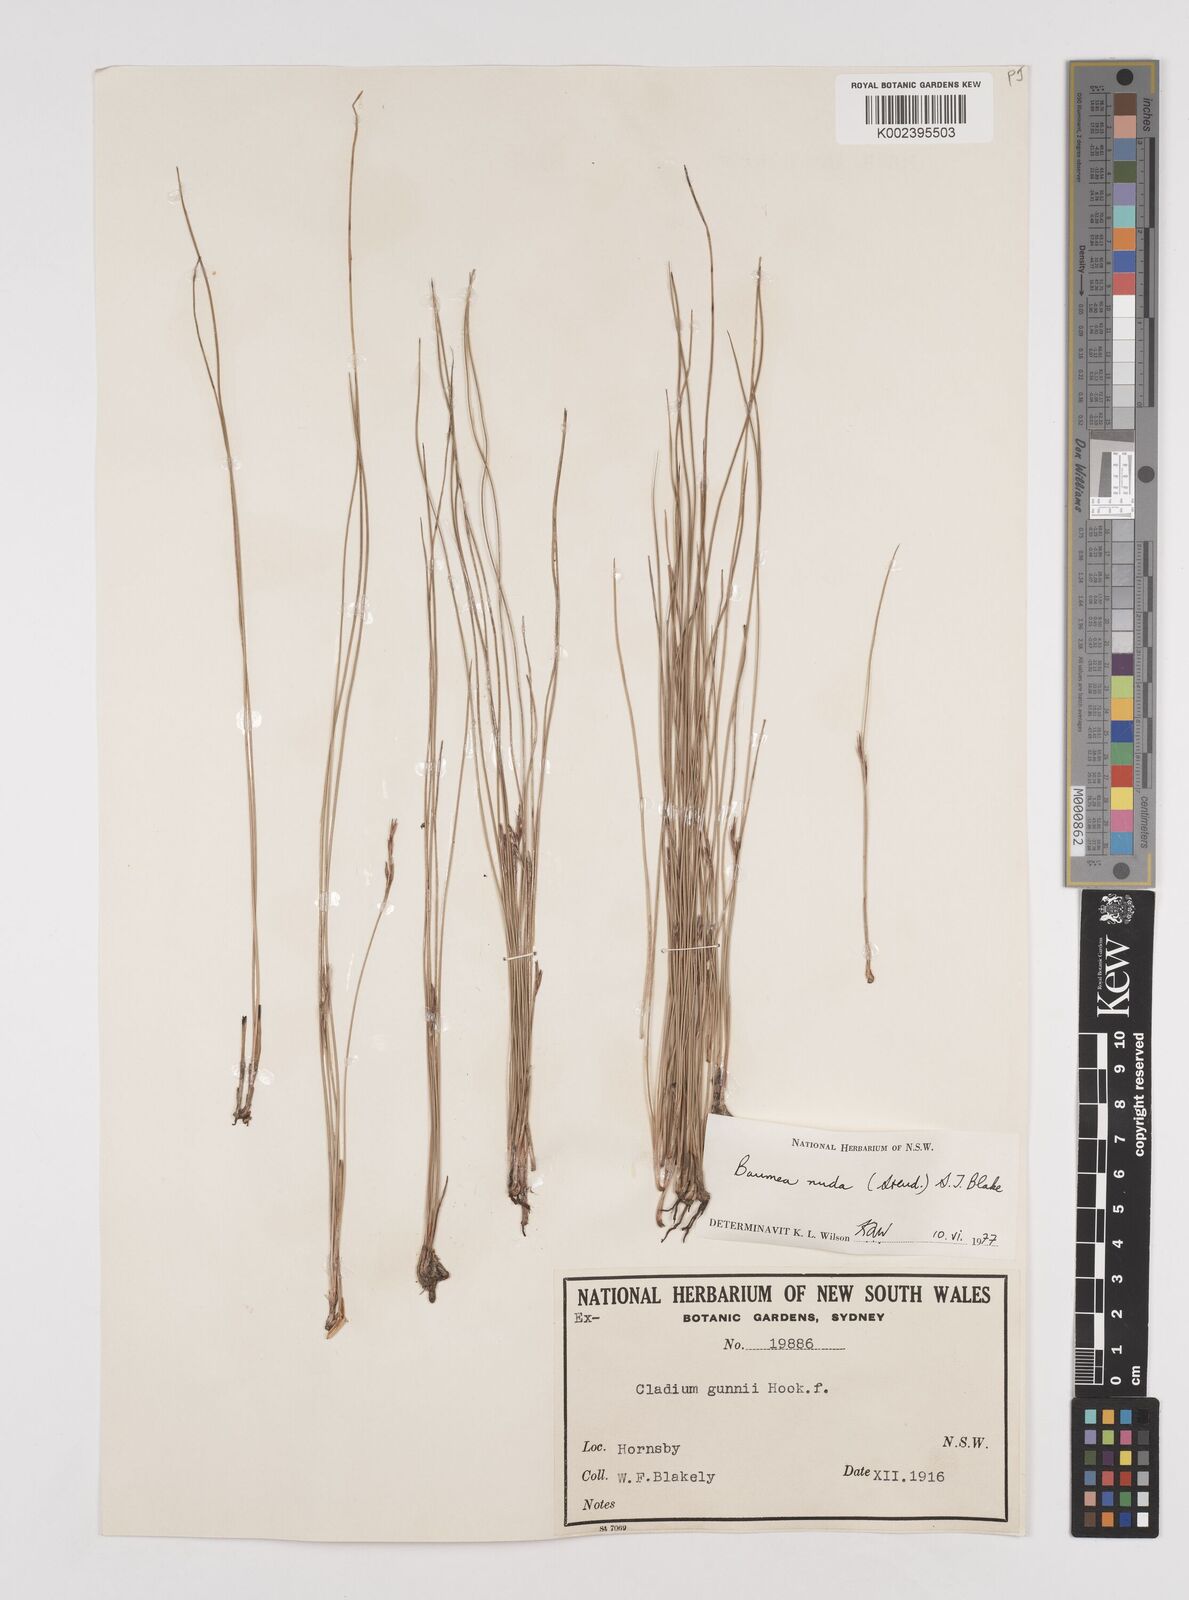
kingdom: Plantae
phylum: Tracheophyta
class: Liliopsida
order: Poales
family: Cyperaceae
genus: Machaerina
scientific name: Machaerina nuda
